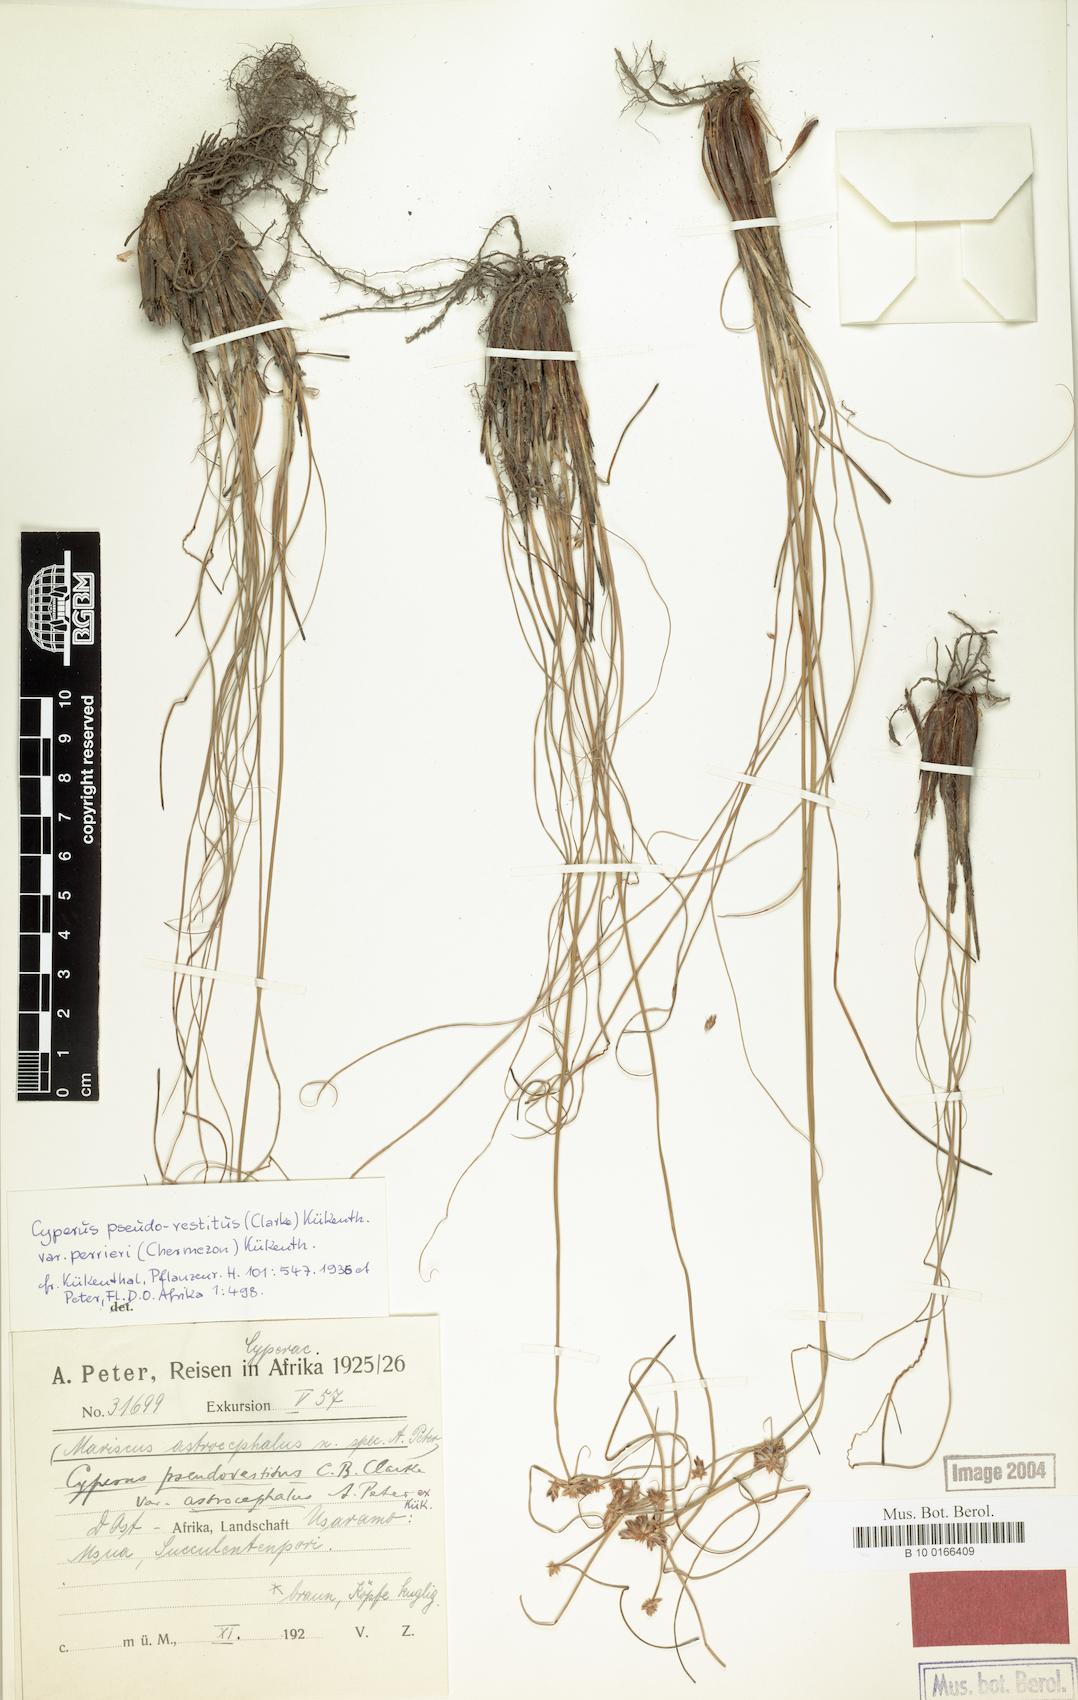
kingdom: Plantae
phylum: Tracheophyta
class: Liliopsida
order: Poales
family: Cyperaceae
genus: Cyperus
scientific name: Cyperus perrieri
